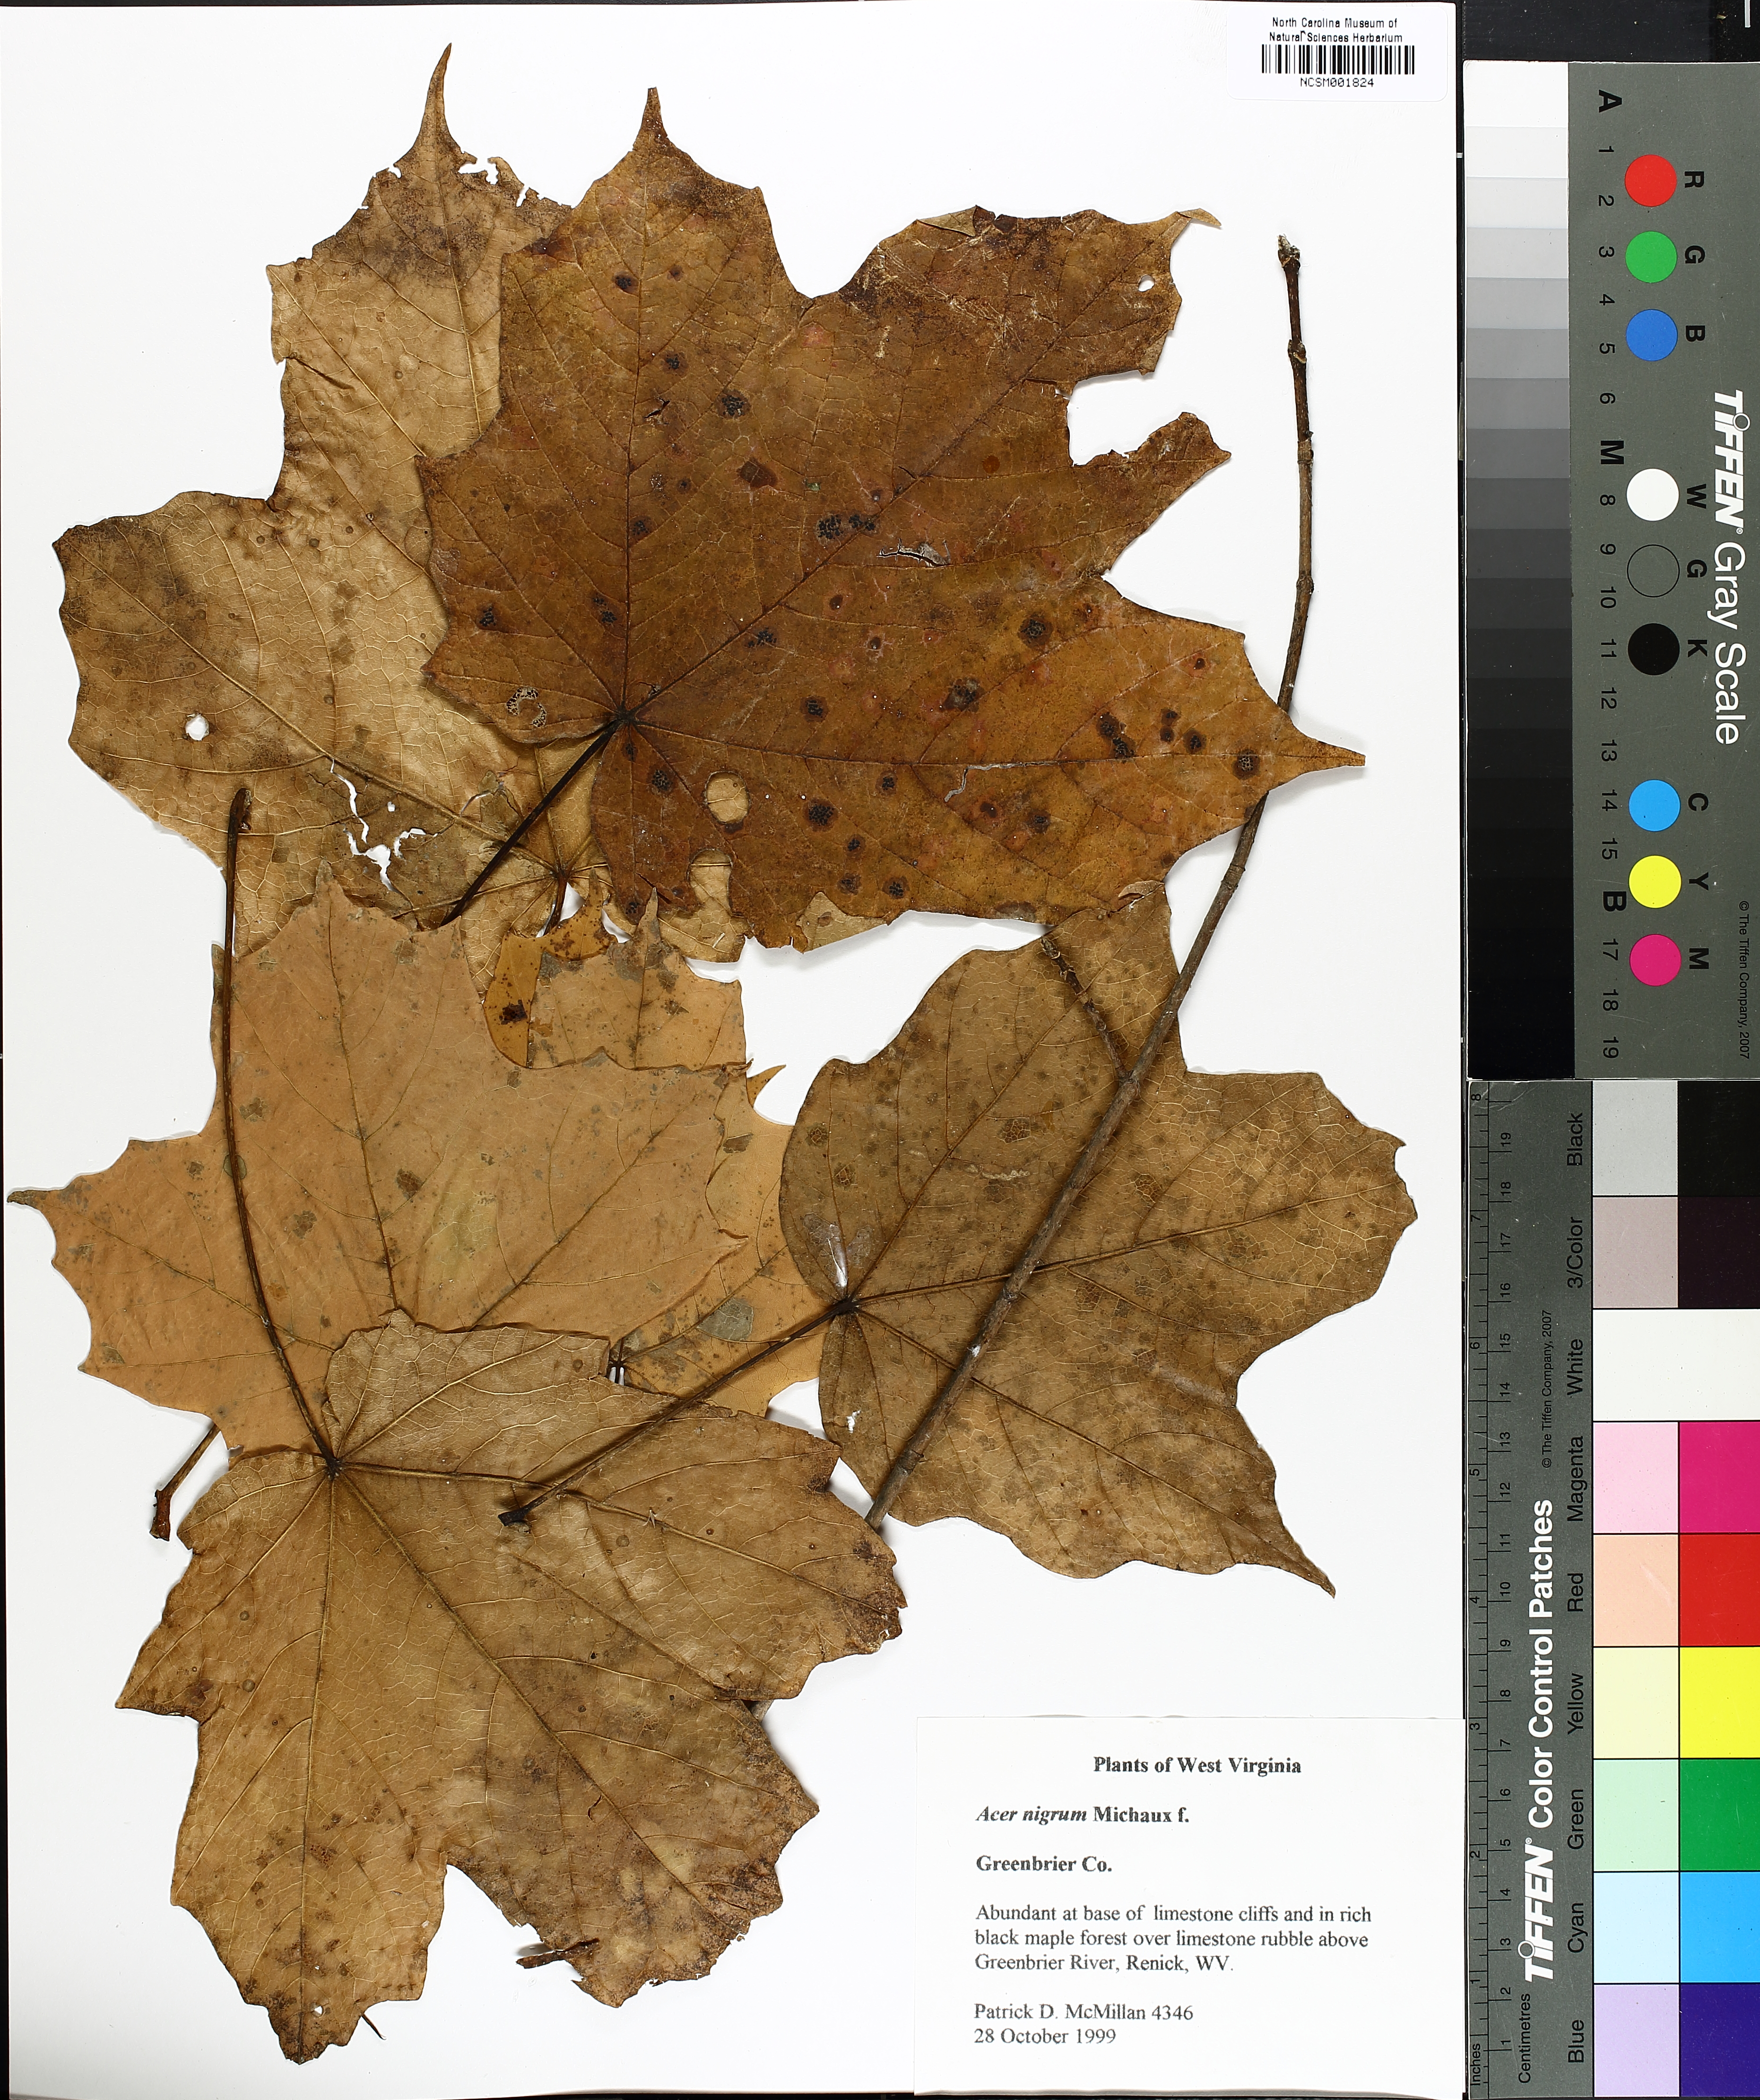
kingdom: Plantae
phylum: Tracheophyta
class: Magnoliopsida
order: Sapindales
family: Sapindaceae
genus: Acer
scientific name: Acer nigrum
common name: Black maple
